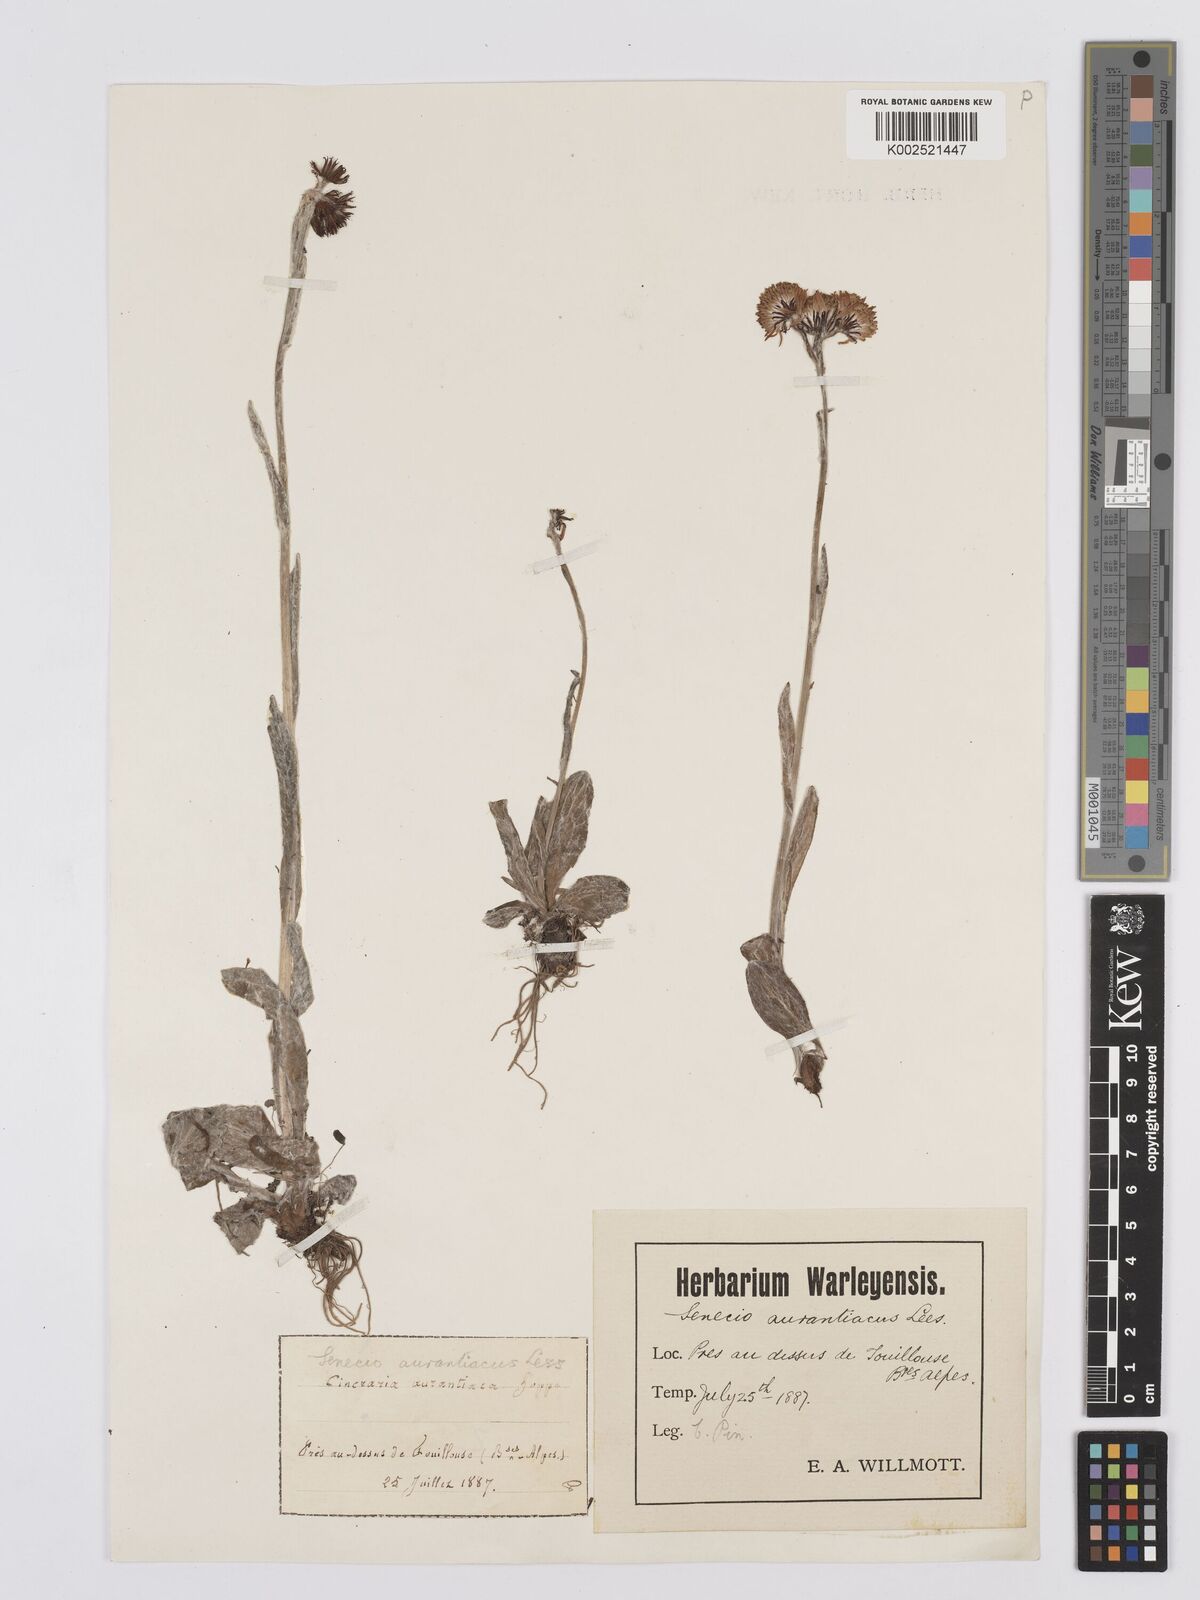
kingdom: Plantae
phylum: Tracheophyta
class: Magnoliopsida
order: Asterales
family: Asteraceae
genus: Tephroseris
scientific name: Tephroseris integrifolia
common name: Field fleawort
